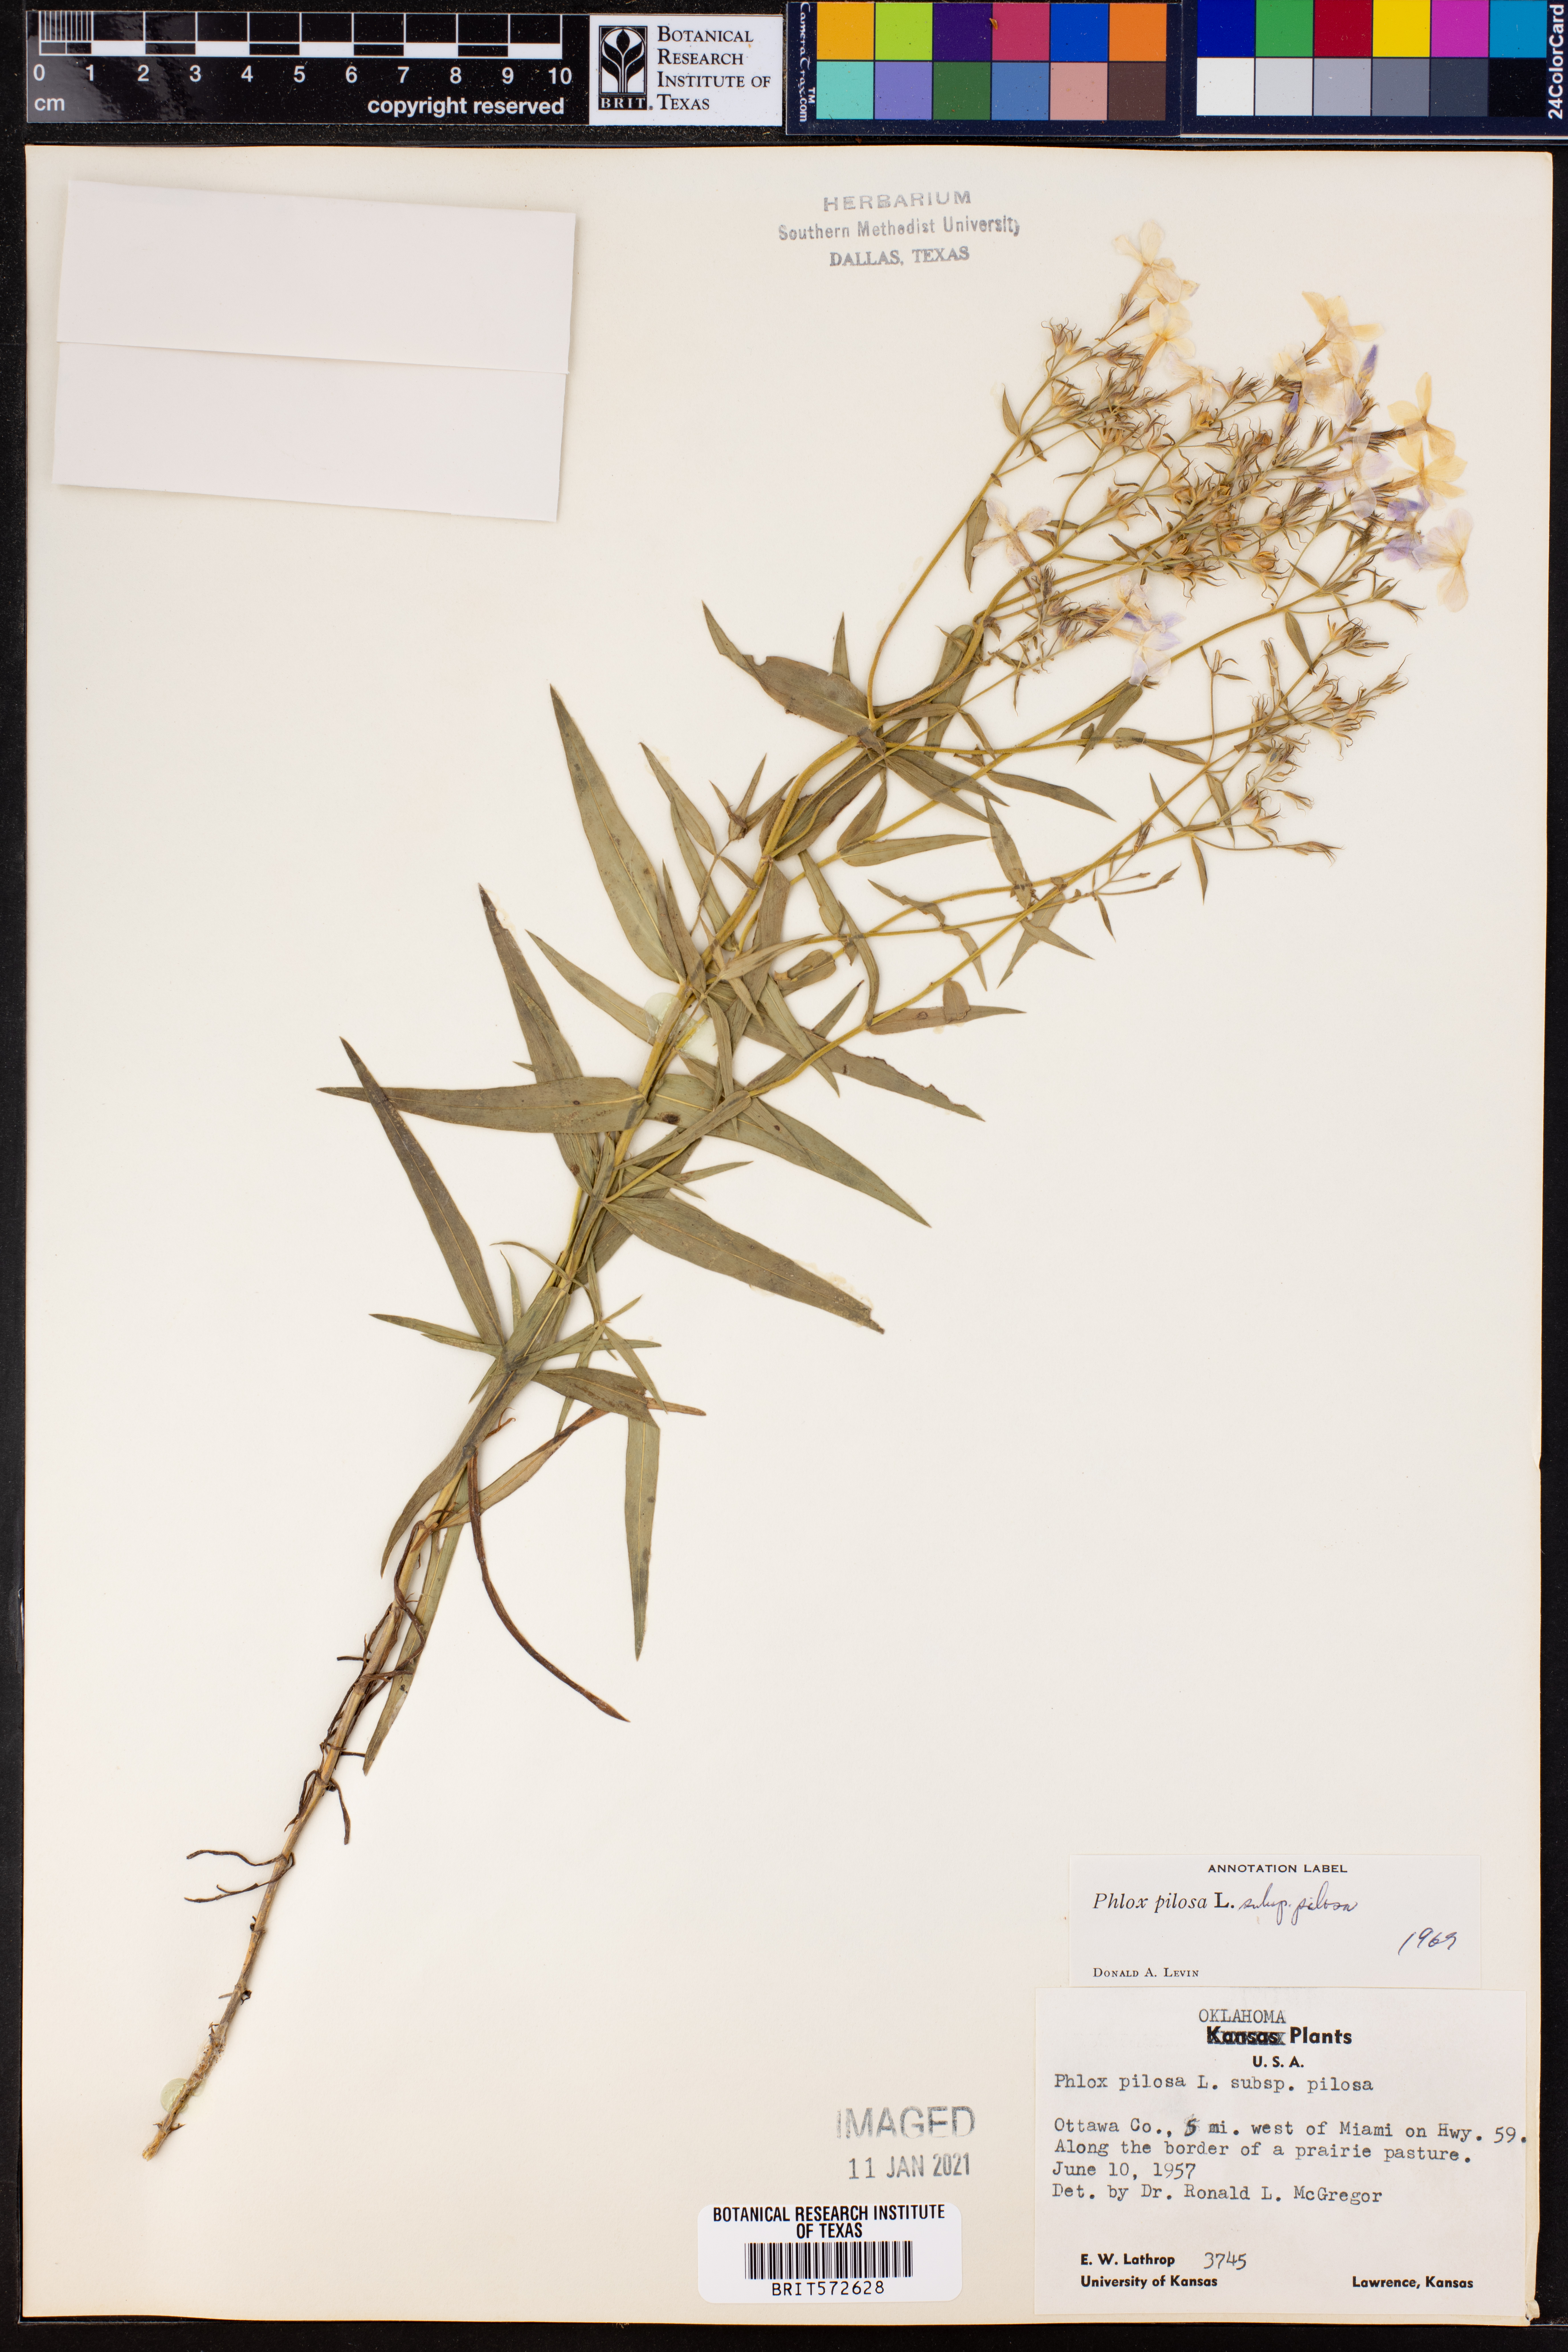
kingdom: Plantae
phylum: Tracheophyta
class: Magnoliopsida
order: Ericales
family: Polemoniaceae
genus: Phlox
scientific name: Phlox pilosa
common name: Prairie phlox
